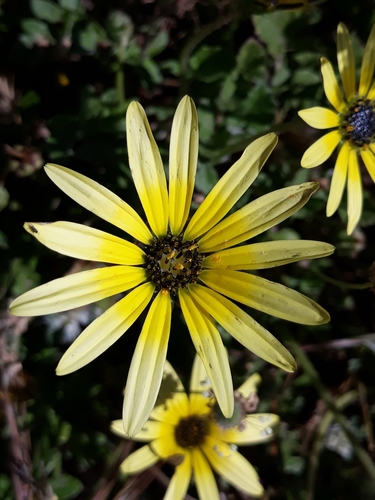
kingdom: Plantae
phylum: Tracheophyta
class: Magnoliopsida
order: Asterales
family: Asteraceae
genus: Arctotheca
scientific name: Arctotheca calendula
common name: Capeweed
